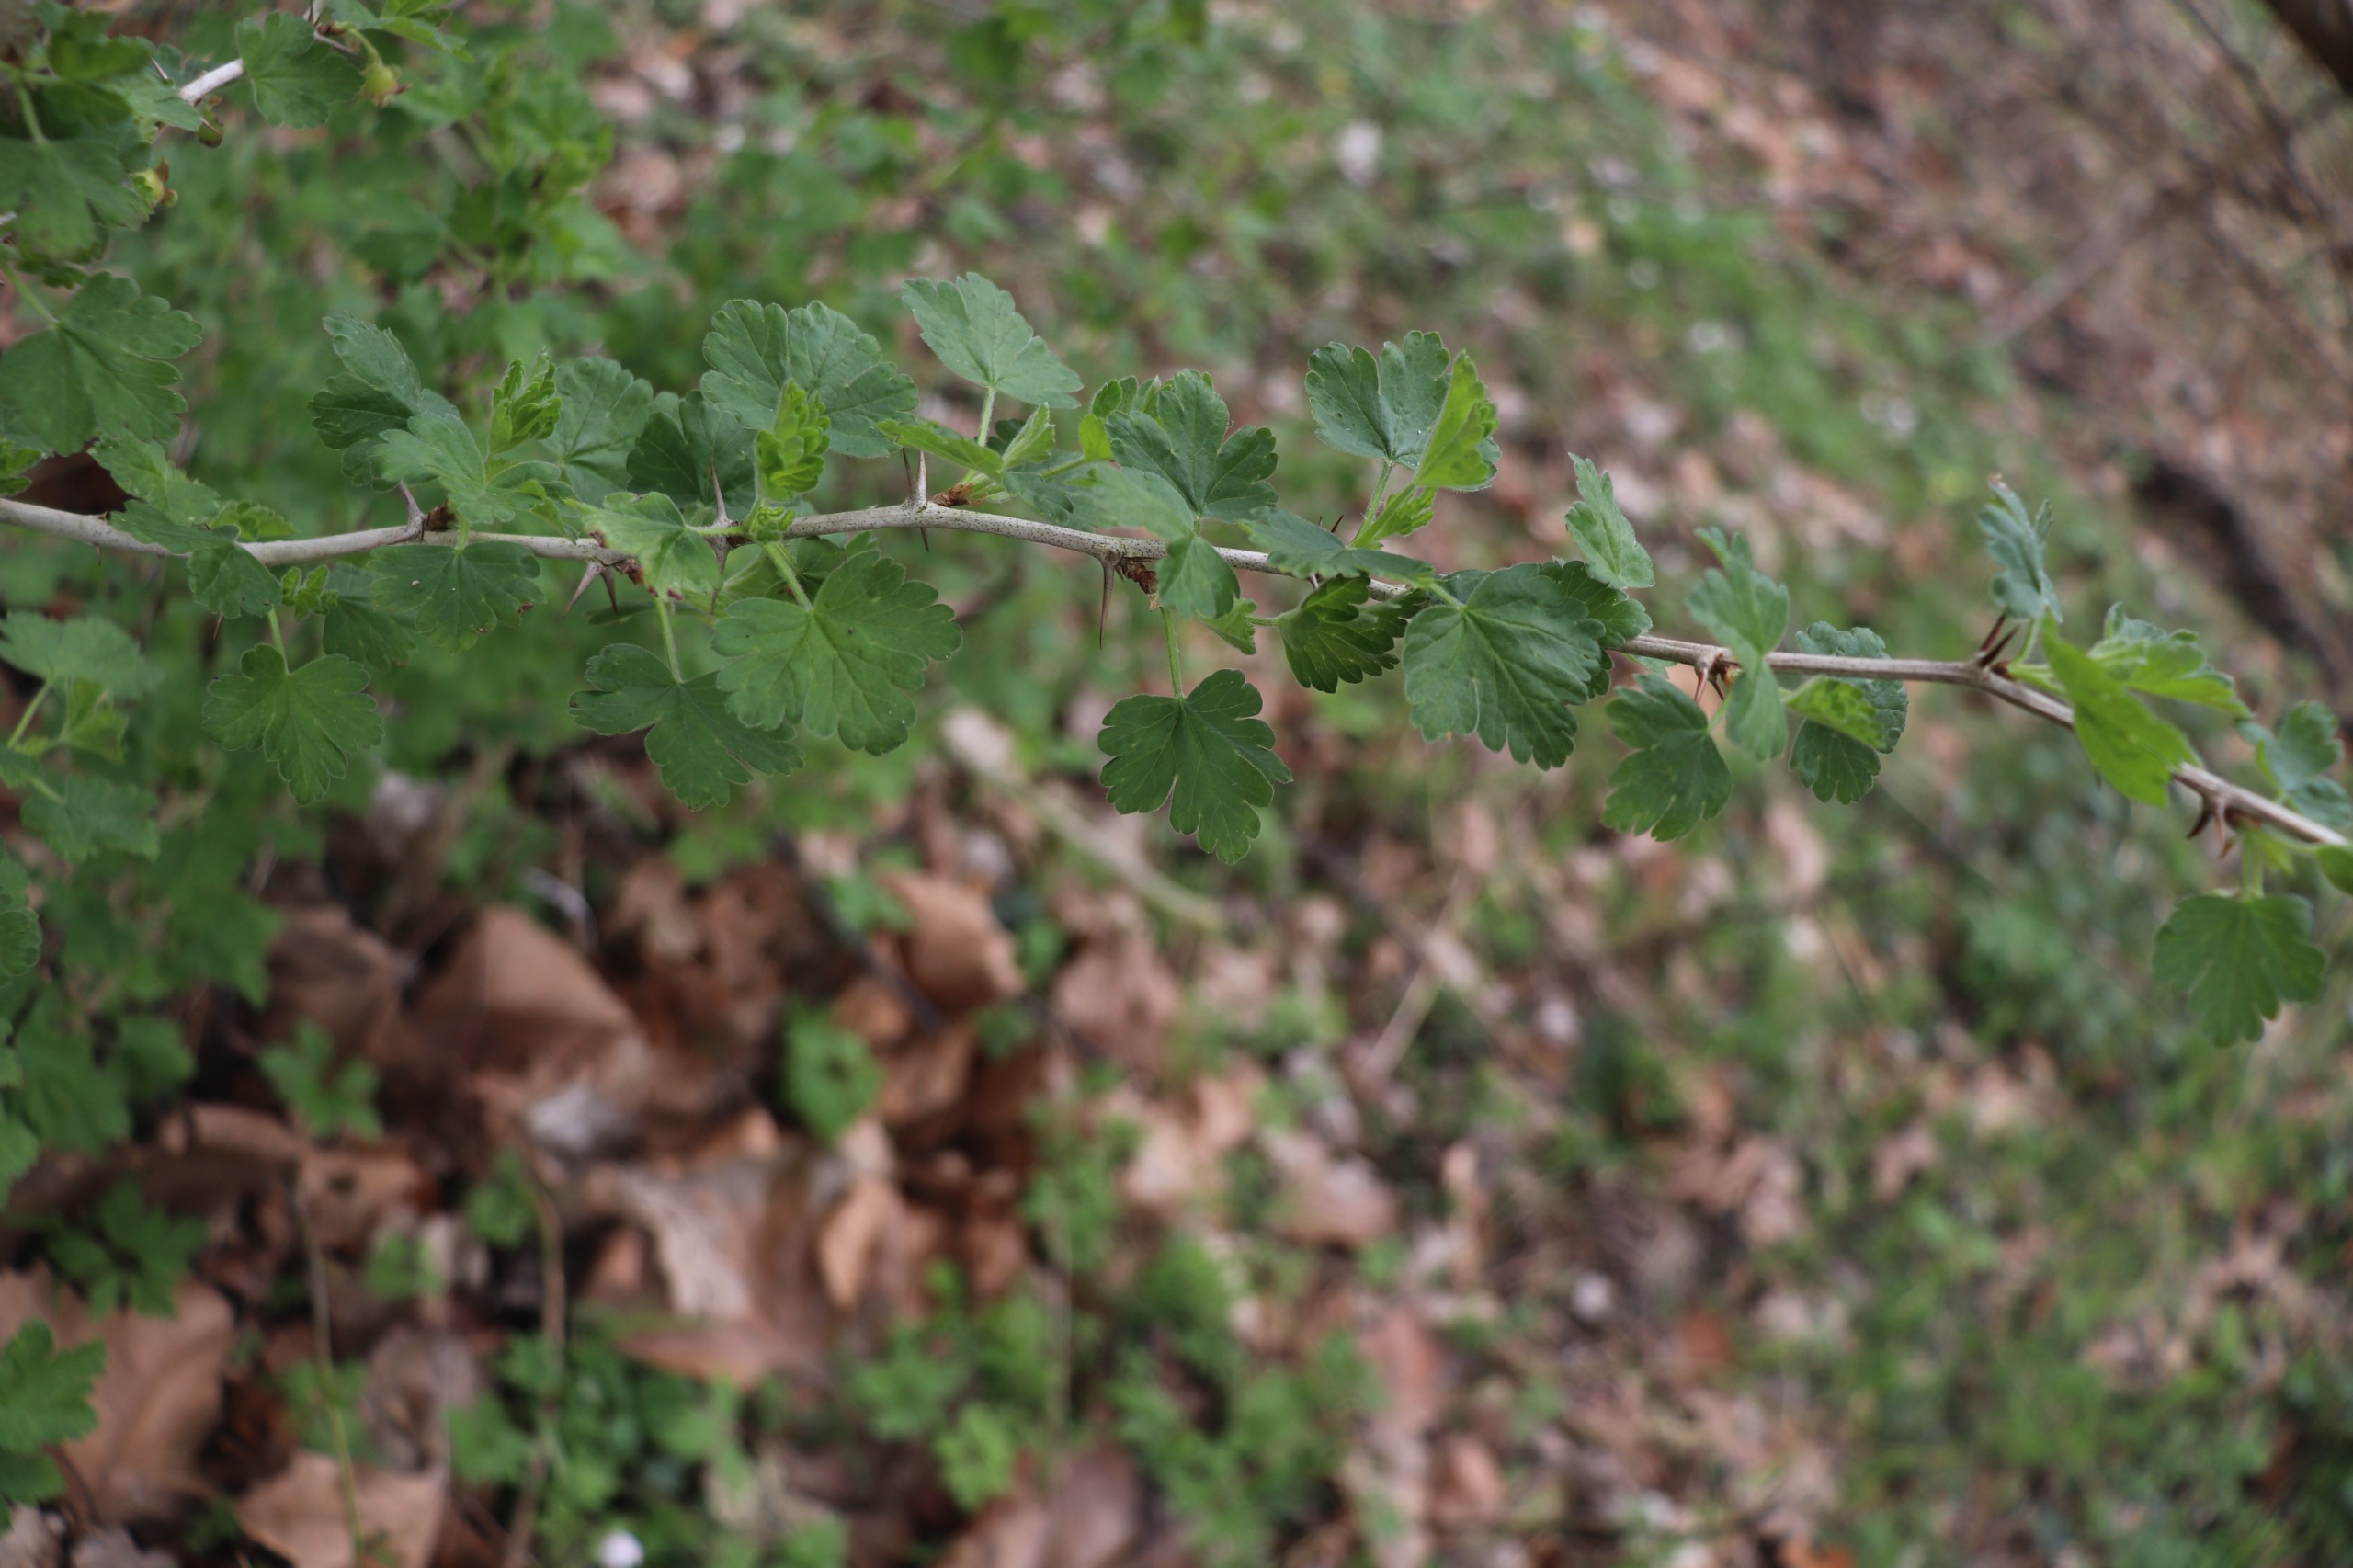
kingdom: Plantae
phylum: Tracheophyta
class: Magnoliopsida
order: Saxifragales
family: Grossulariaceae
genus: Ribes
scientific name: Ribes uva-crispa
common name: Stikkelsbær
